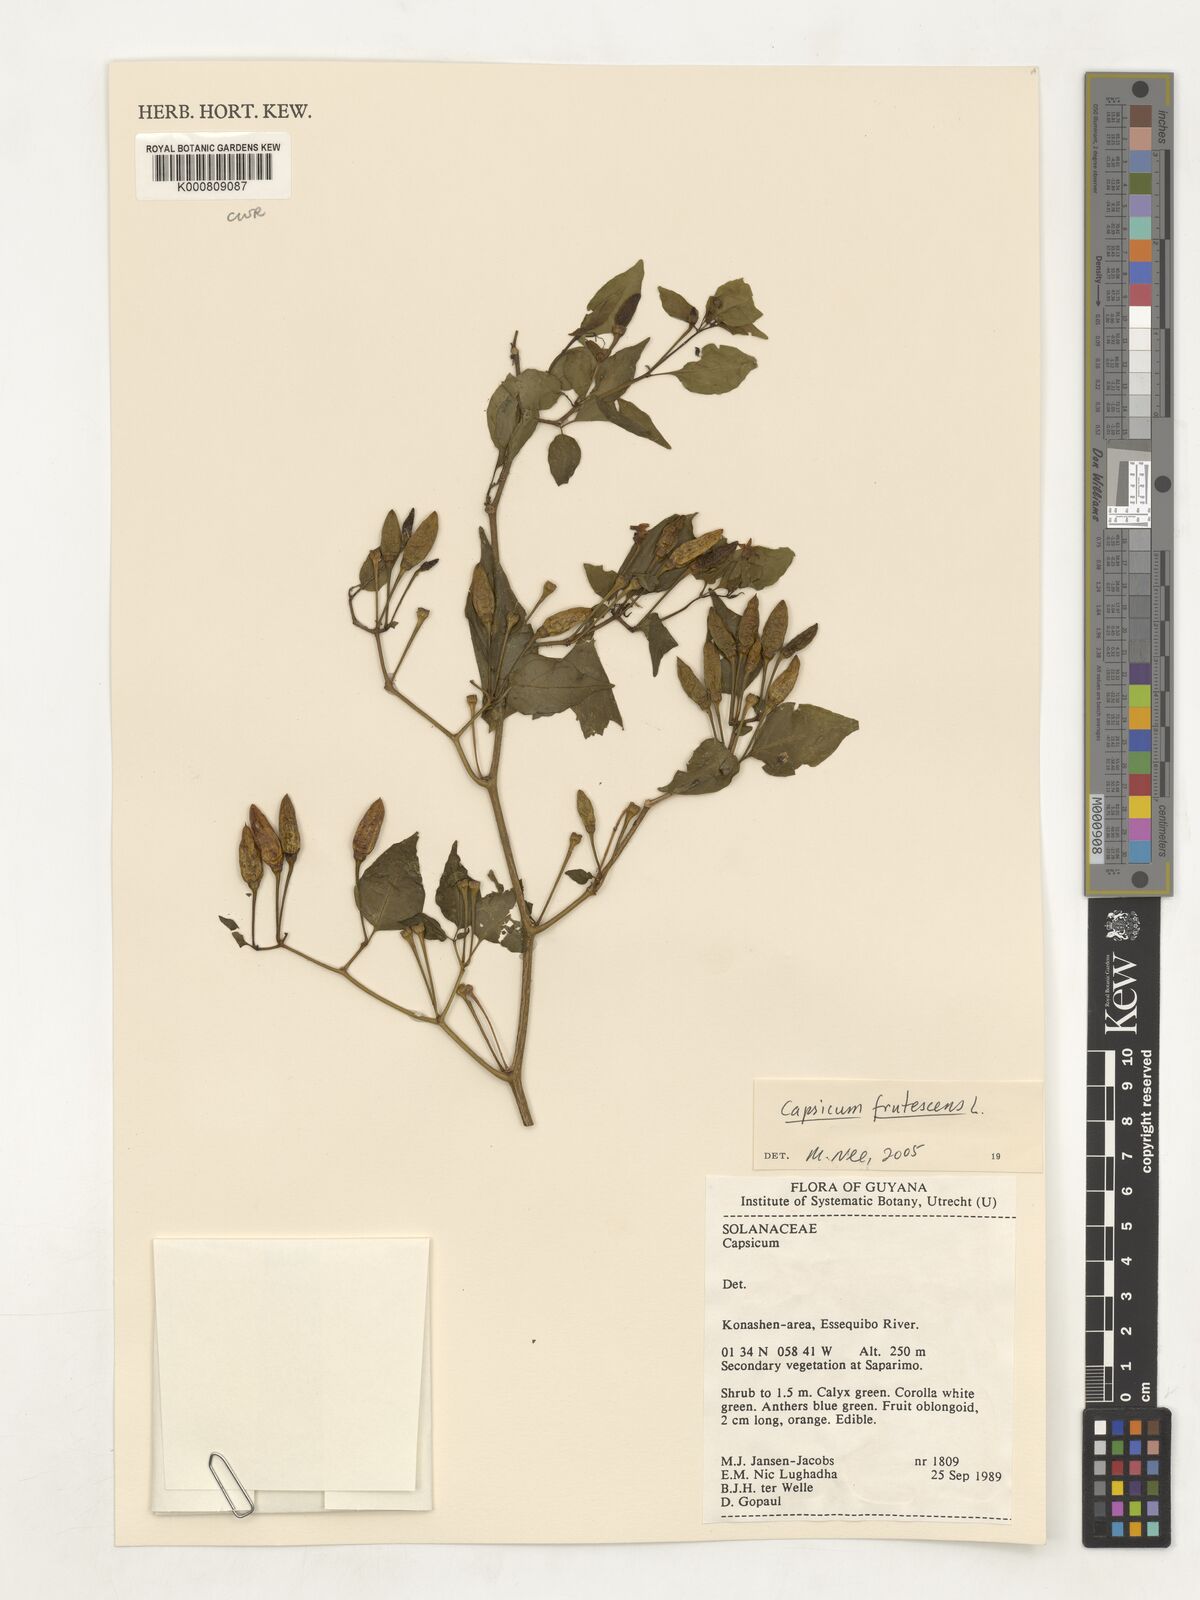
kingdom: Plantae
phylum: Tracheophyta
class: Magnoliopsida
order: Solanales
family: Solanaceae
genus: Capsicum
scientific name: Capsicum frutescens
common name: Bird pepper
